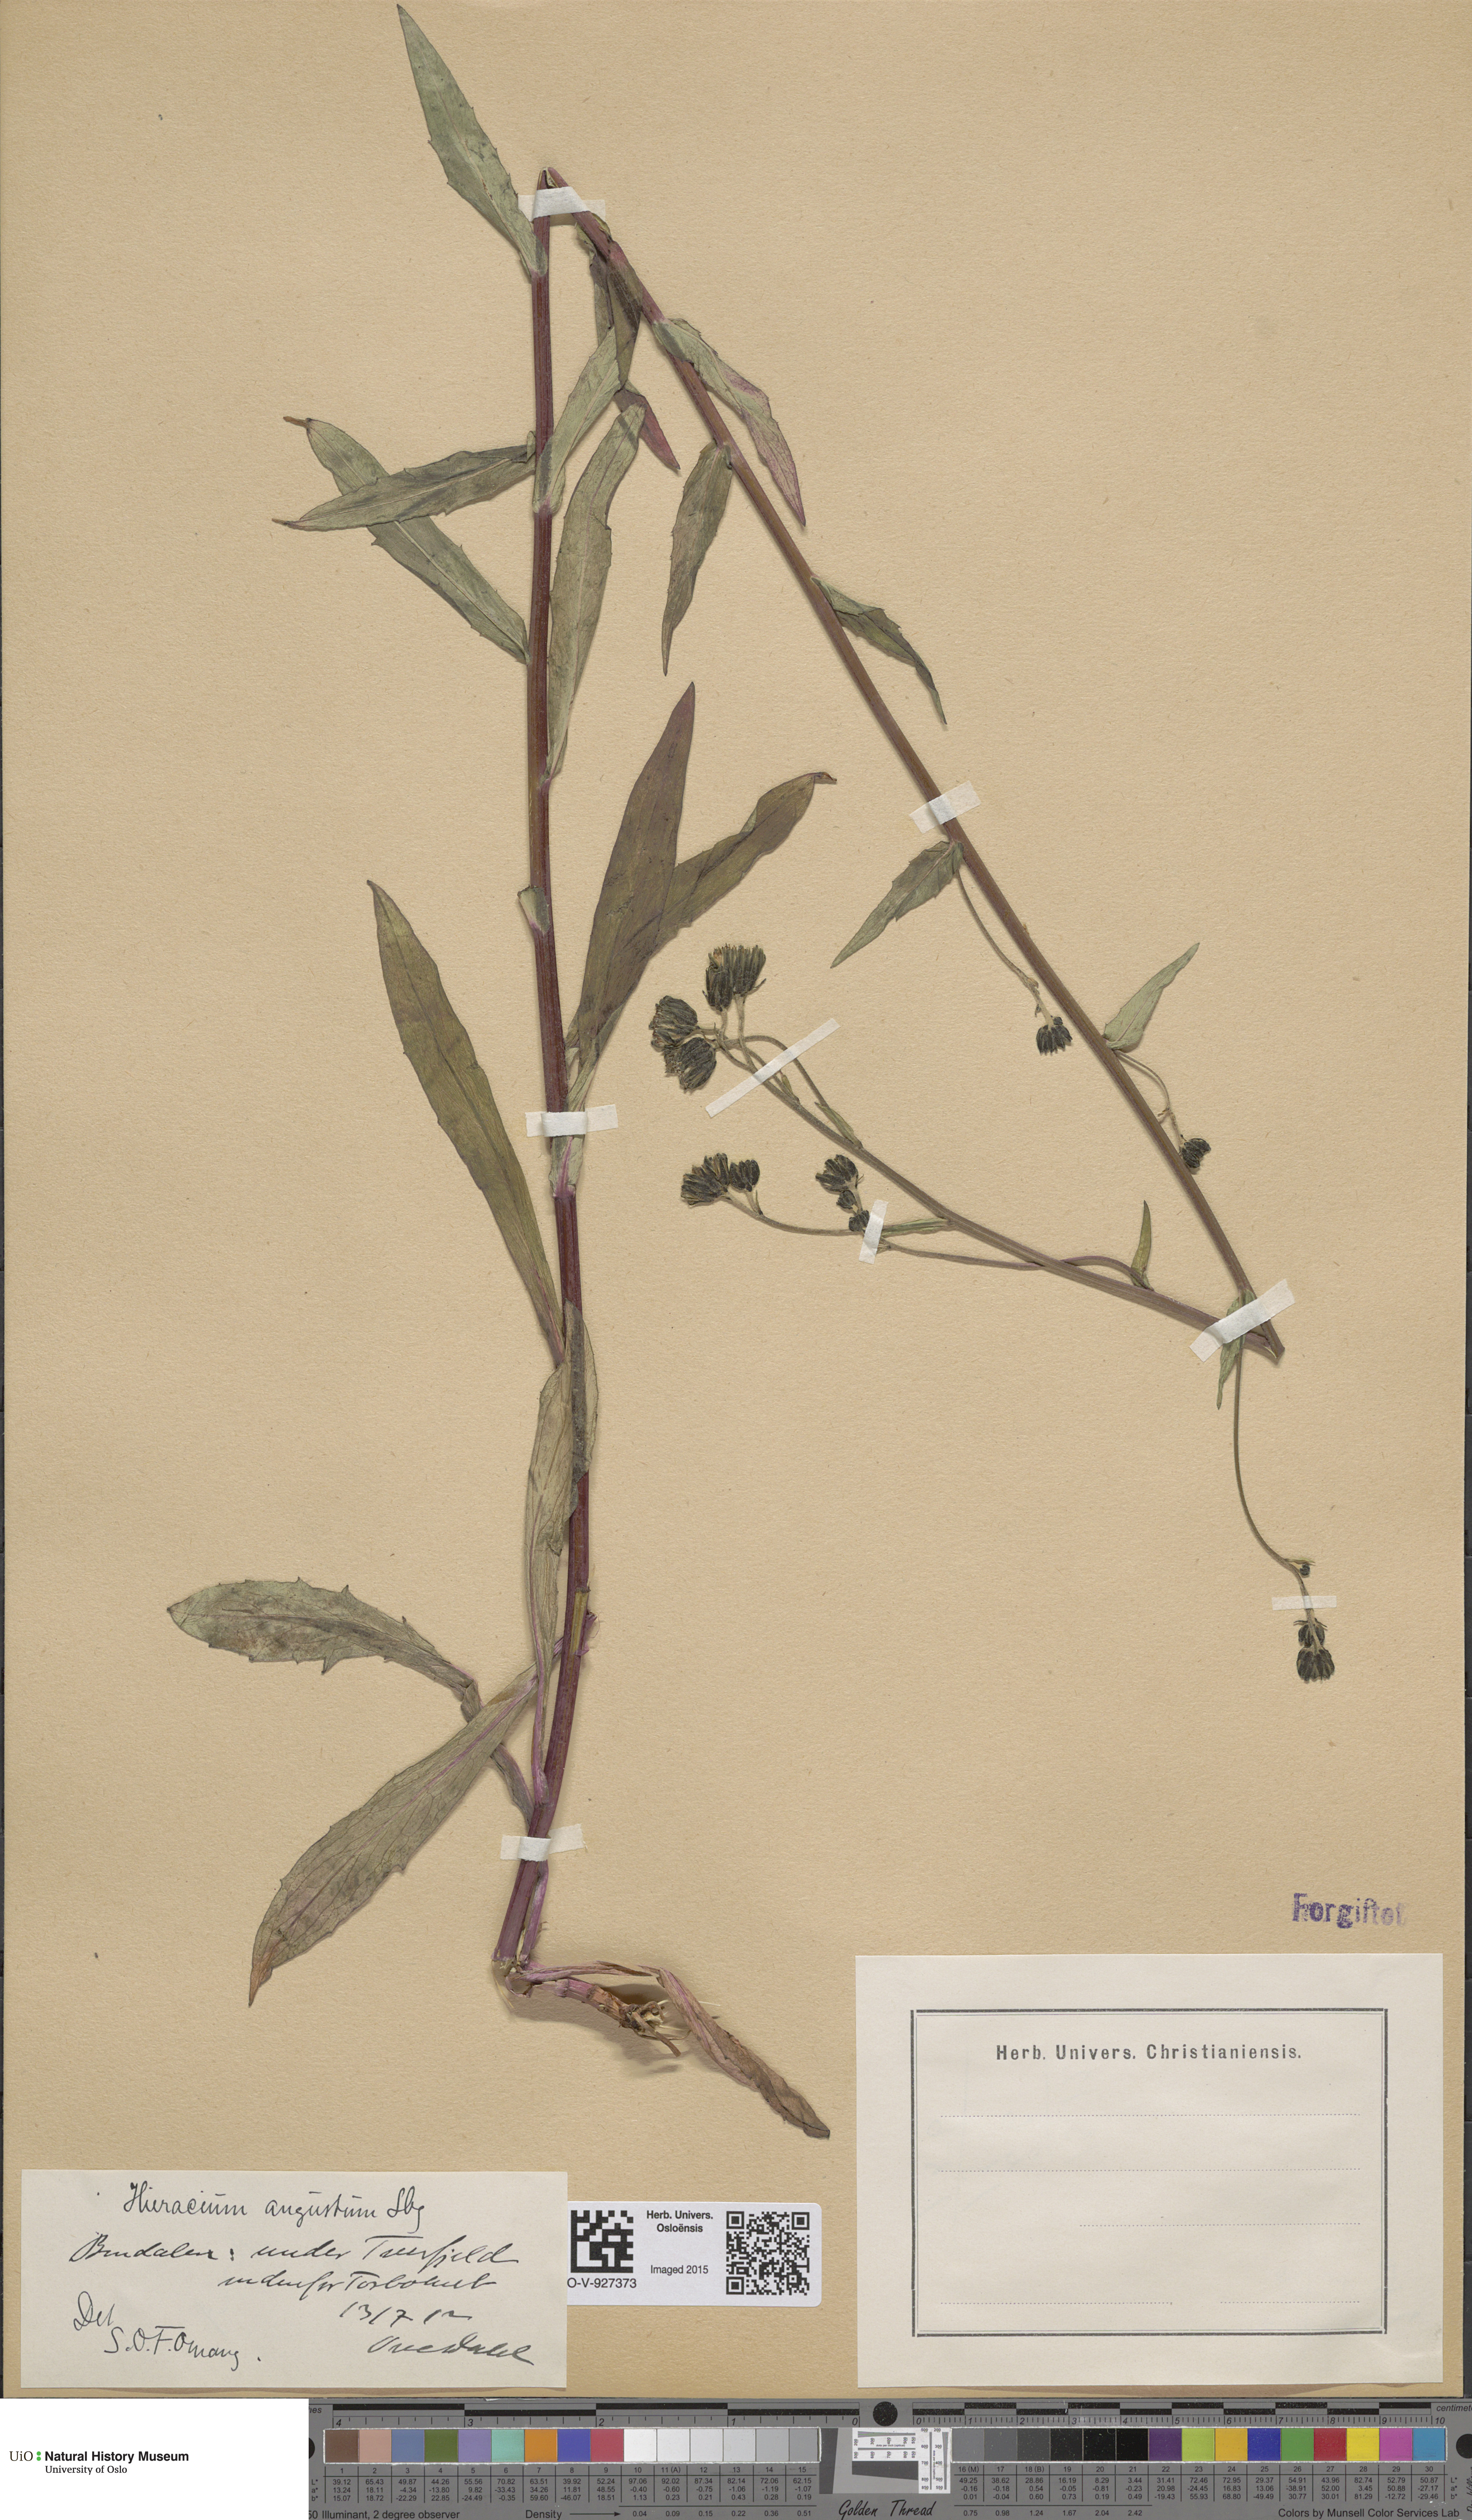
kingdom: Plantae
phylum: Tracheophyta
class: Magnoliopsida
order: Asterales
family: Asteraceae
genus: Hieracium
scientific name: Hieracium angustum
